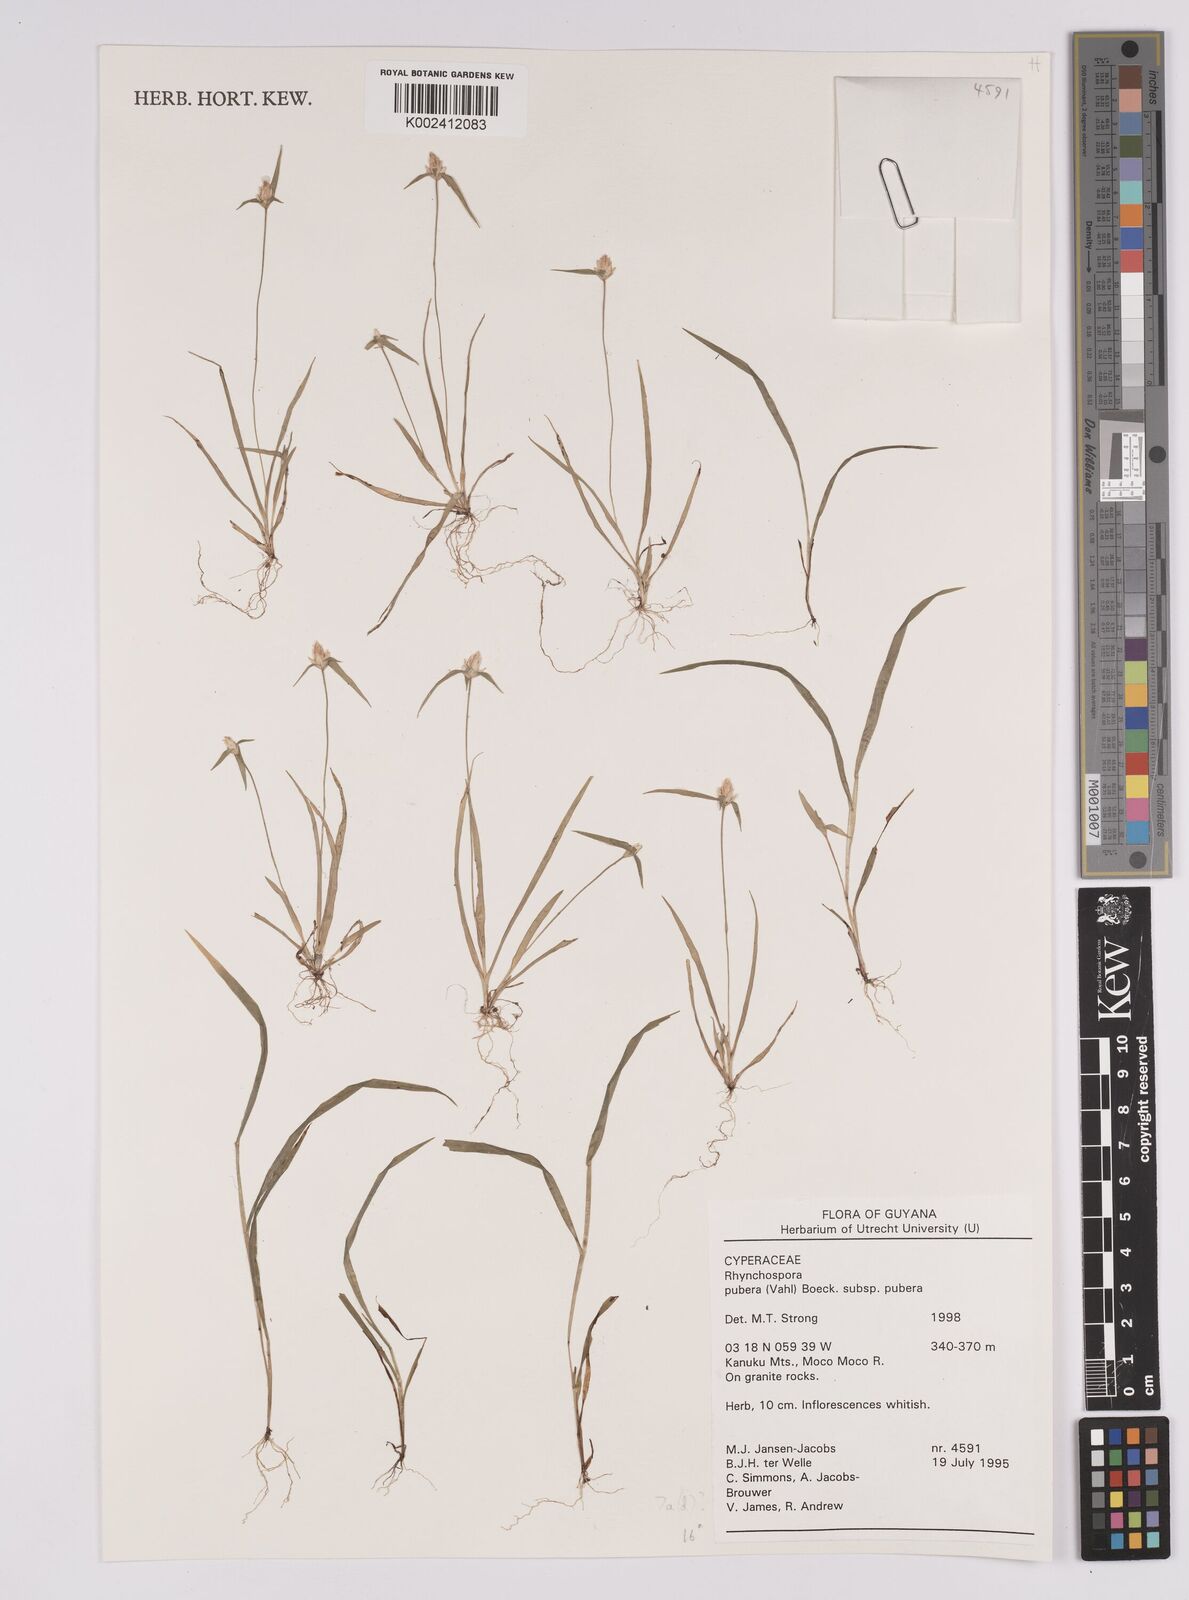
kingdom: Plantae
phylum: Tracheophyta
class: Liliopsida
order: Poales
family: Cyperaceae
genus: Rhynchospora
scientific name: Rhynchospora pubera
